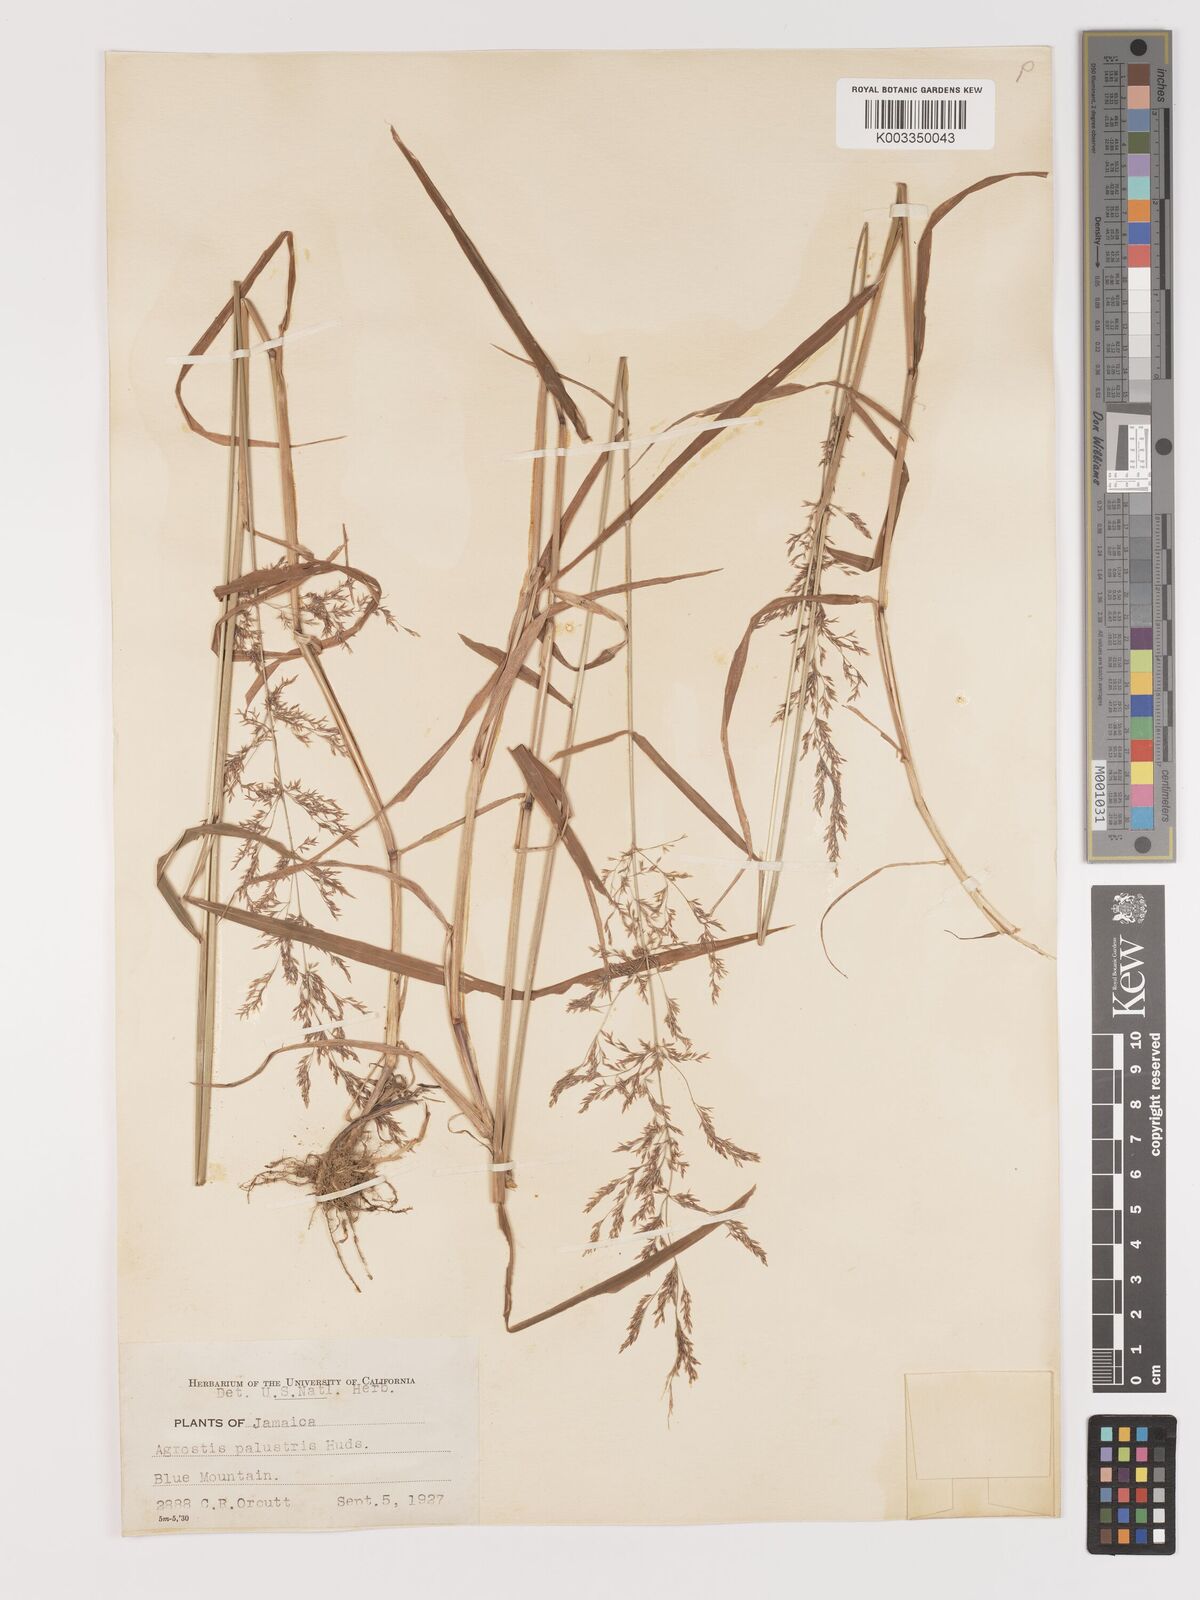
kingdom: Plantae
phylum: Tracheophyta
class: Liliopsida
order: Poales
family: Poaceae
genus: Agrostis
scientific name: Agrostis gigantea
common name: Black bent
